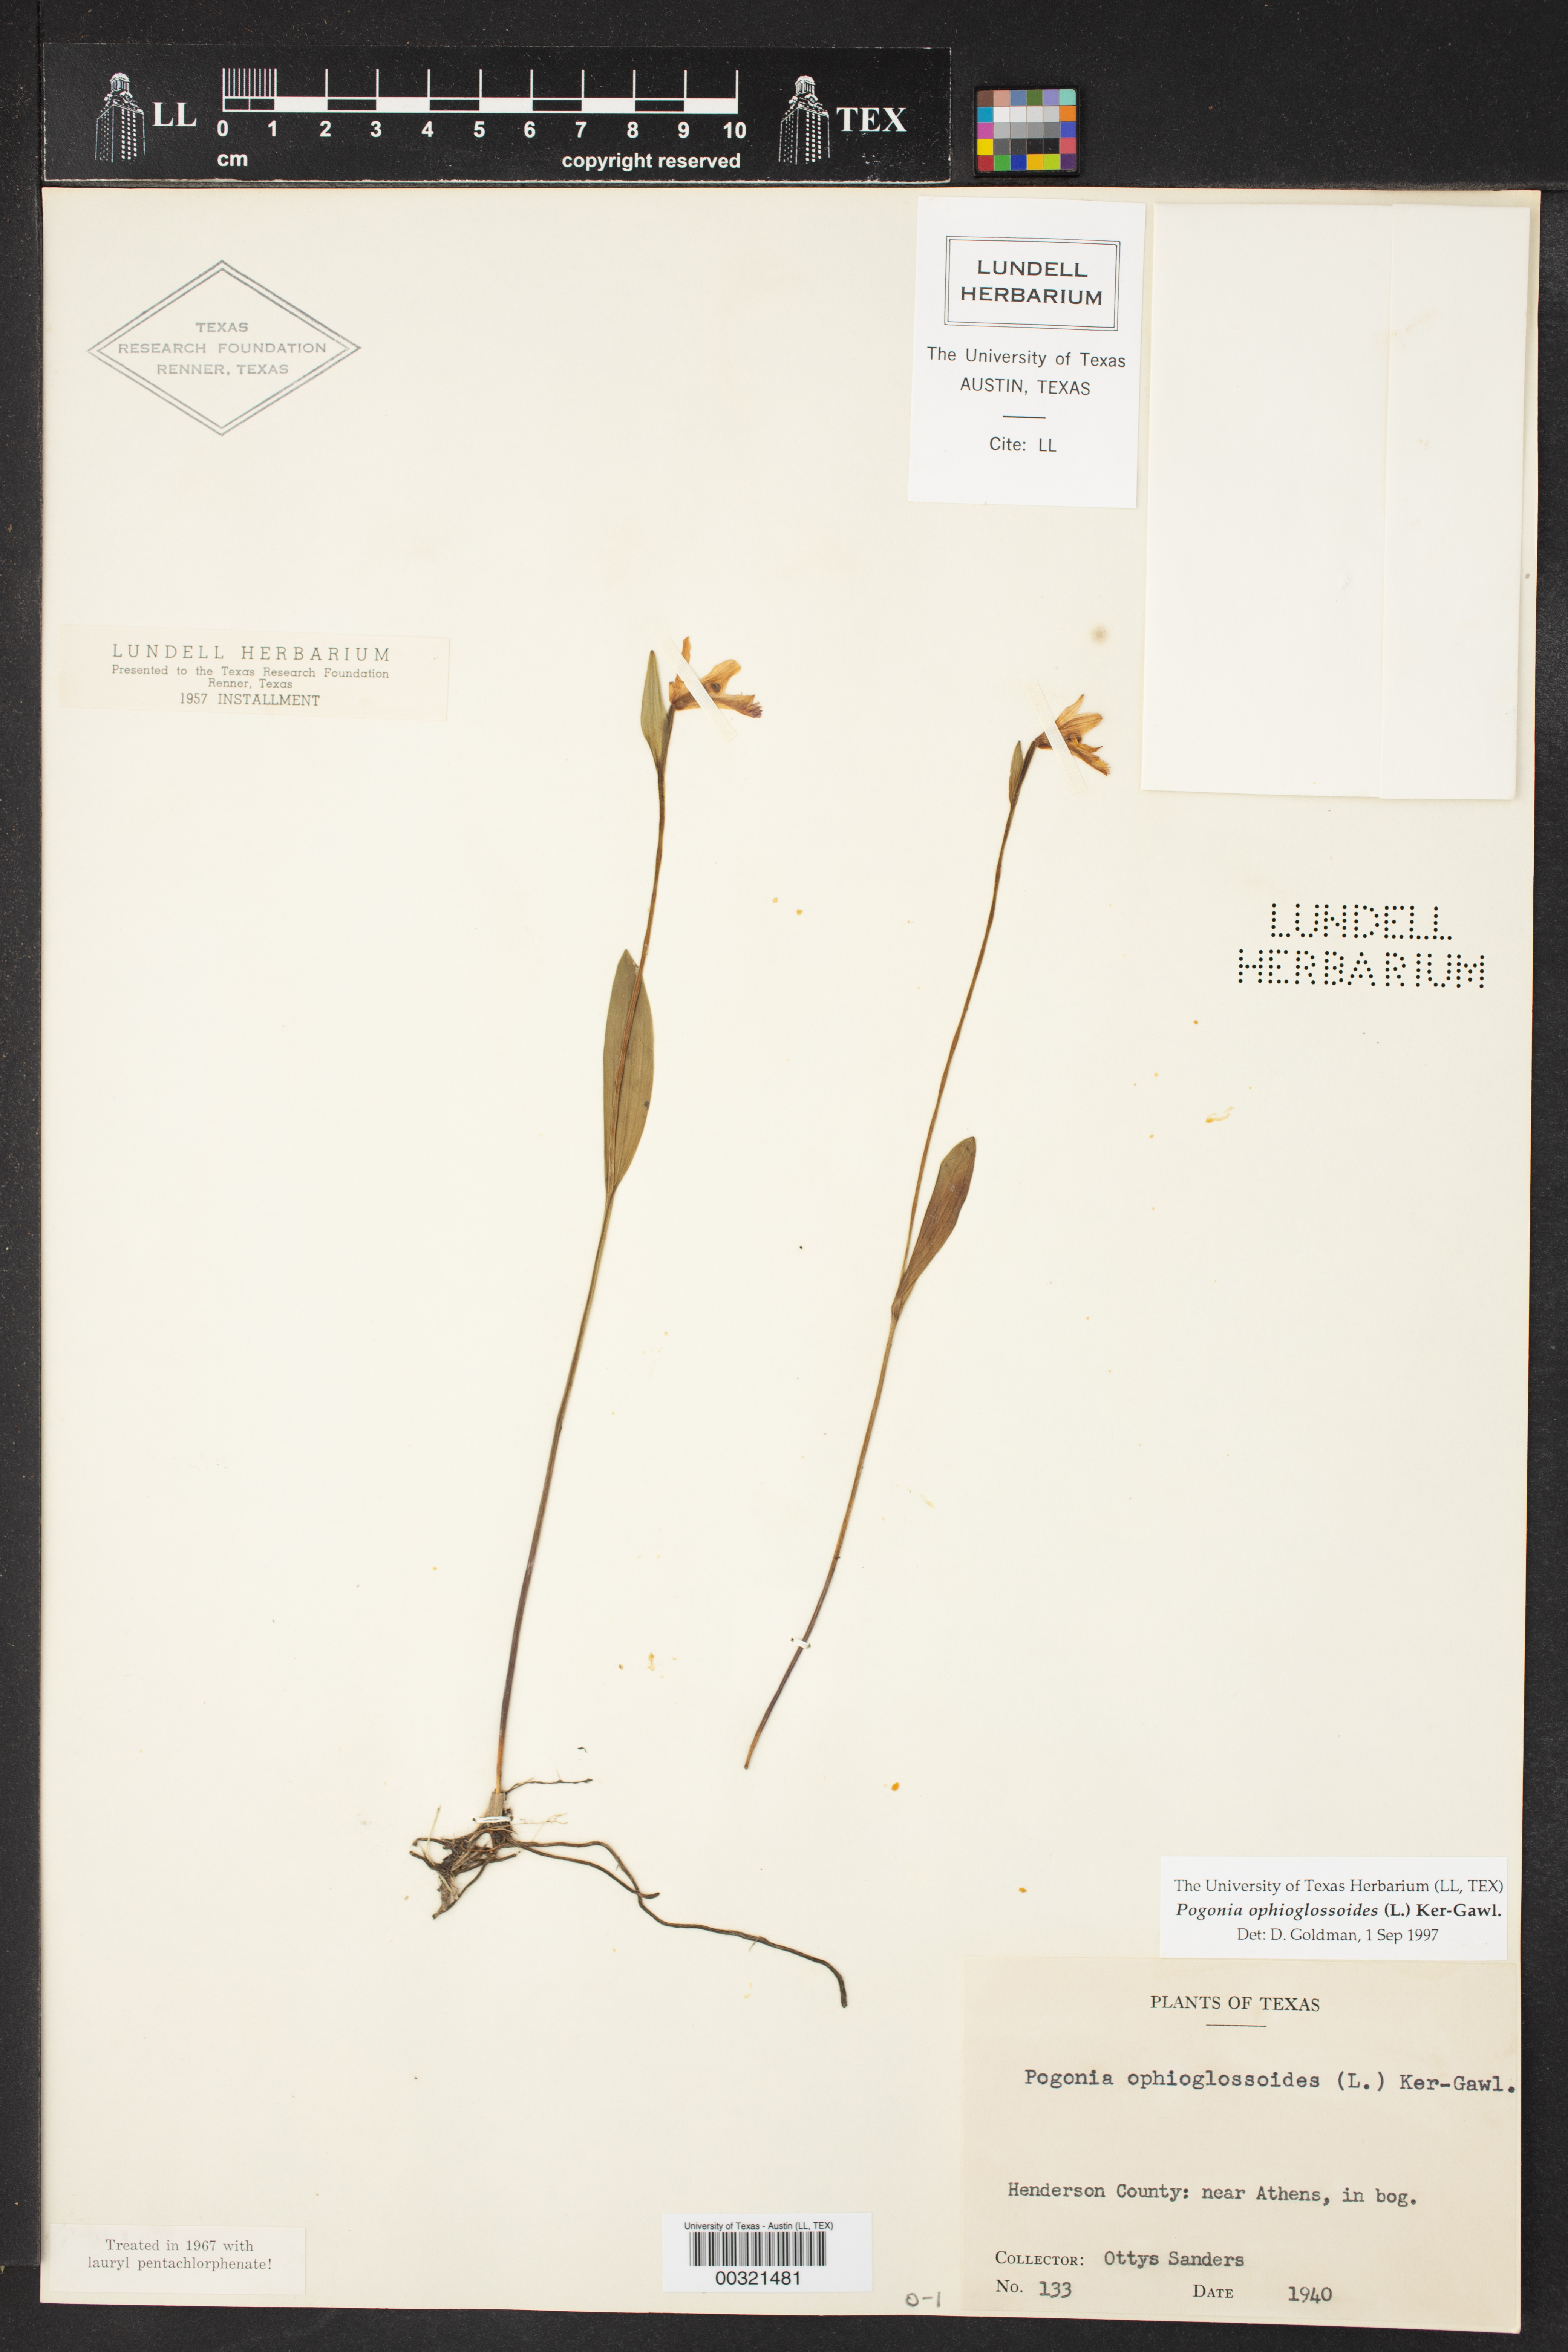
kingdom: Plantae
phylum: Tracheophyta
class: Liliopsida
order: Asparagales
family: Orchidaceae
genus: Pogonia
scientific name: Pogonia ophioglossoides
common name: Rose pogonia
